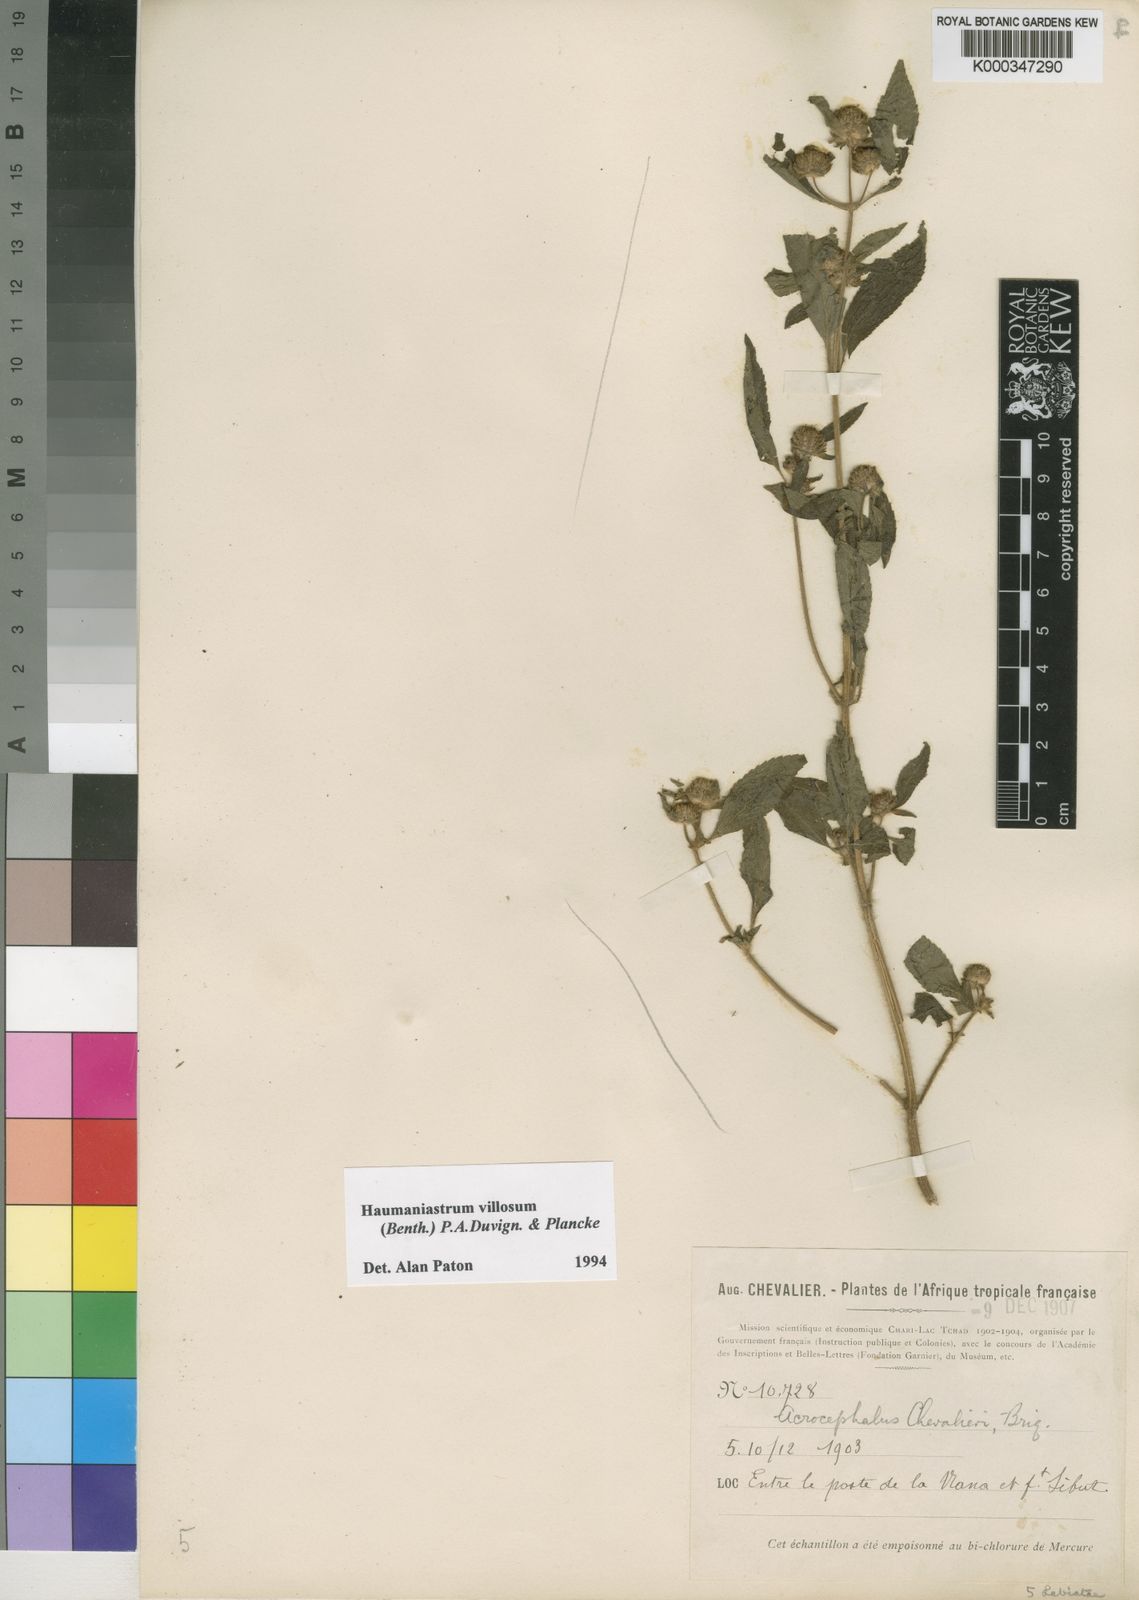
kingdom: Plantae
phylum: Tracheophyta
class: Magnoliopsida
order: Lamiales
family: Lamiaceae
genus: Haumaniastrum
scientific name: Haumaniastrum villosum
